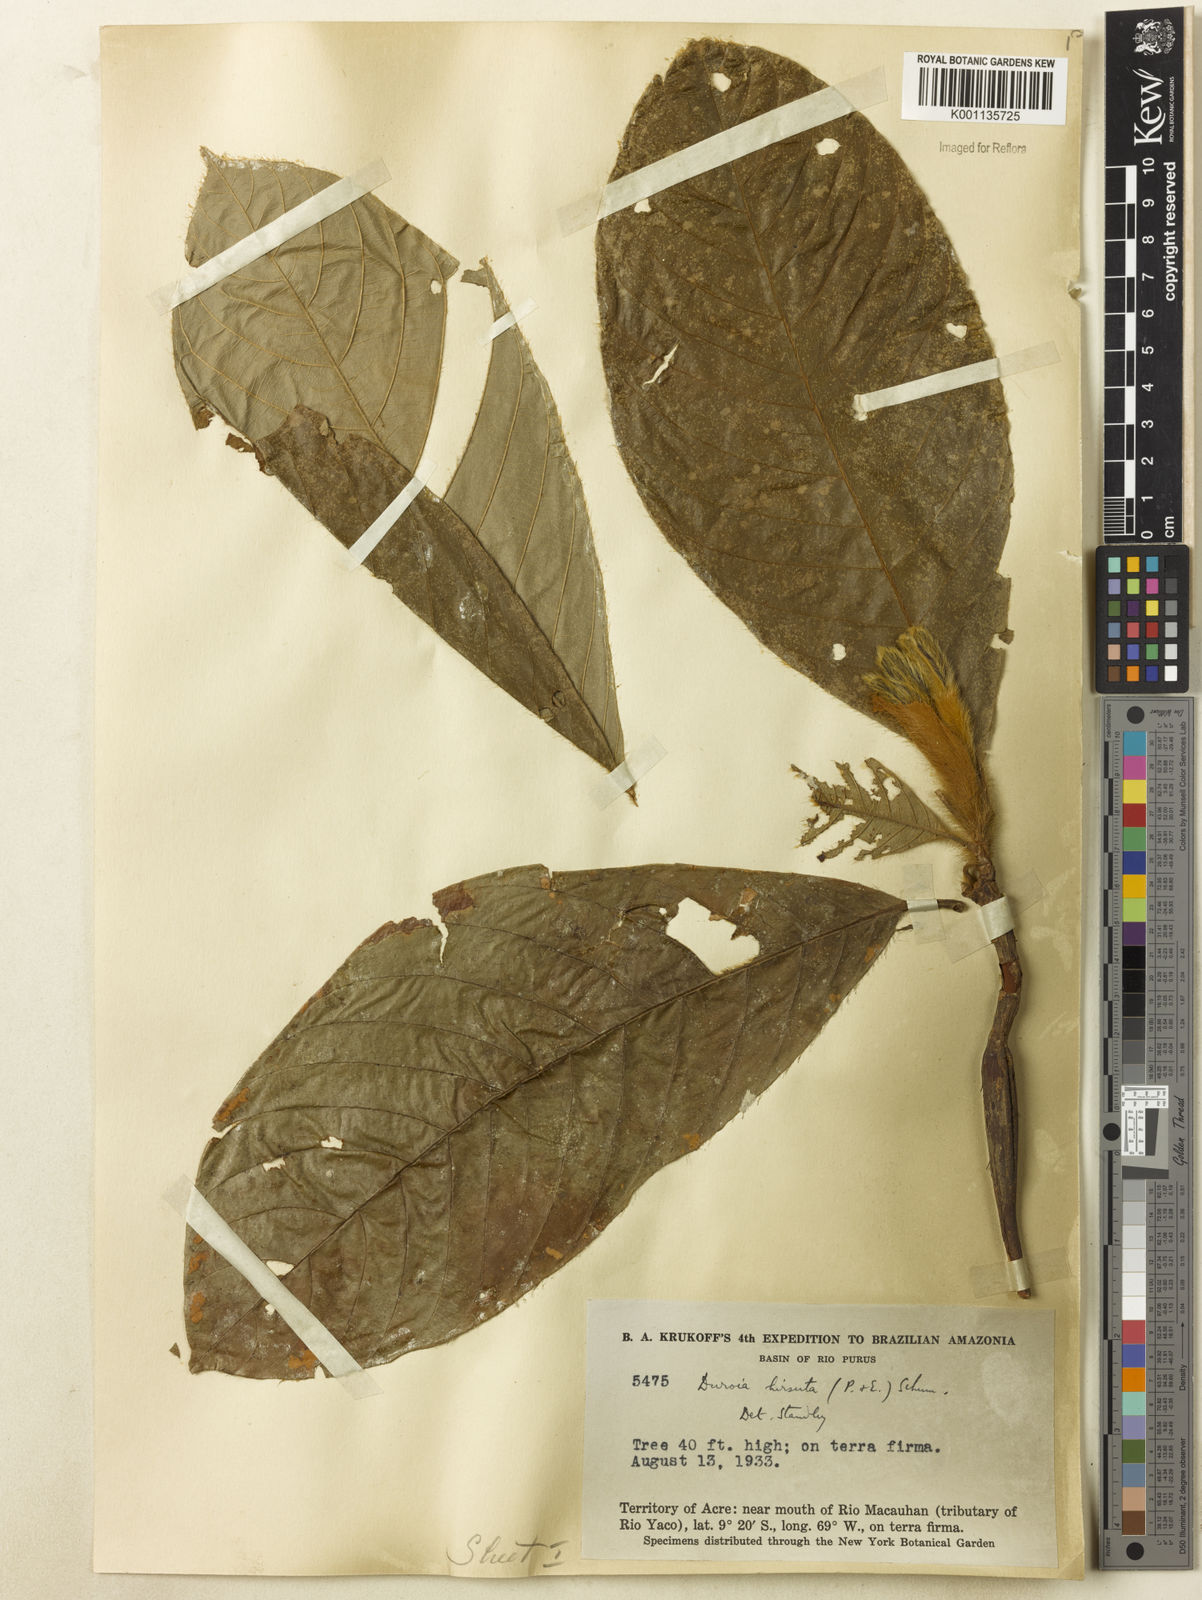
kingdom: Plantae
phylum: Tracheophyta
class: Magnoliopsida
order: Gentianales
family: Rubiaceae
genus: Duroia
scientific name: Duroia hirsuta
